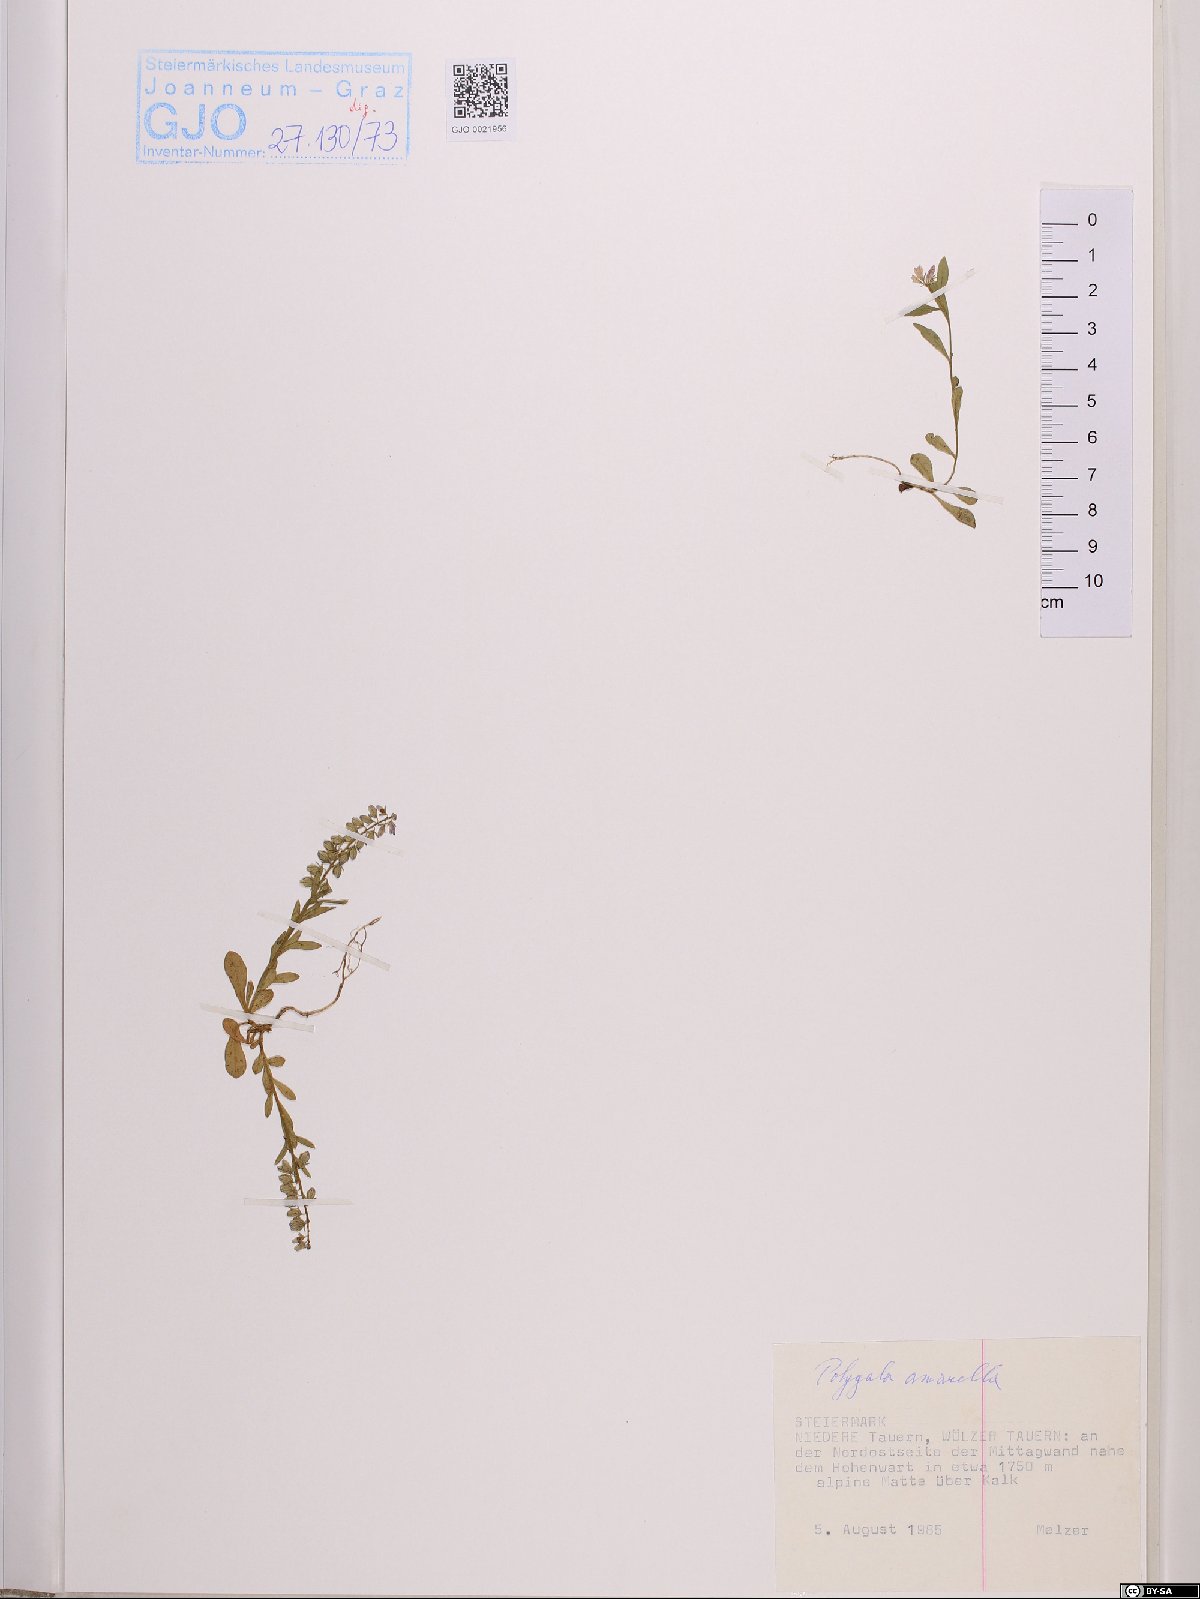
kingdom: Plantae
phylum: Tracheophyta
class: Magnoliopsida
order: Fabales
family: Polygalaceae
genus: Polygala
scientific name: Polygala amarella
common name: Dwarf milkwort
